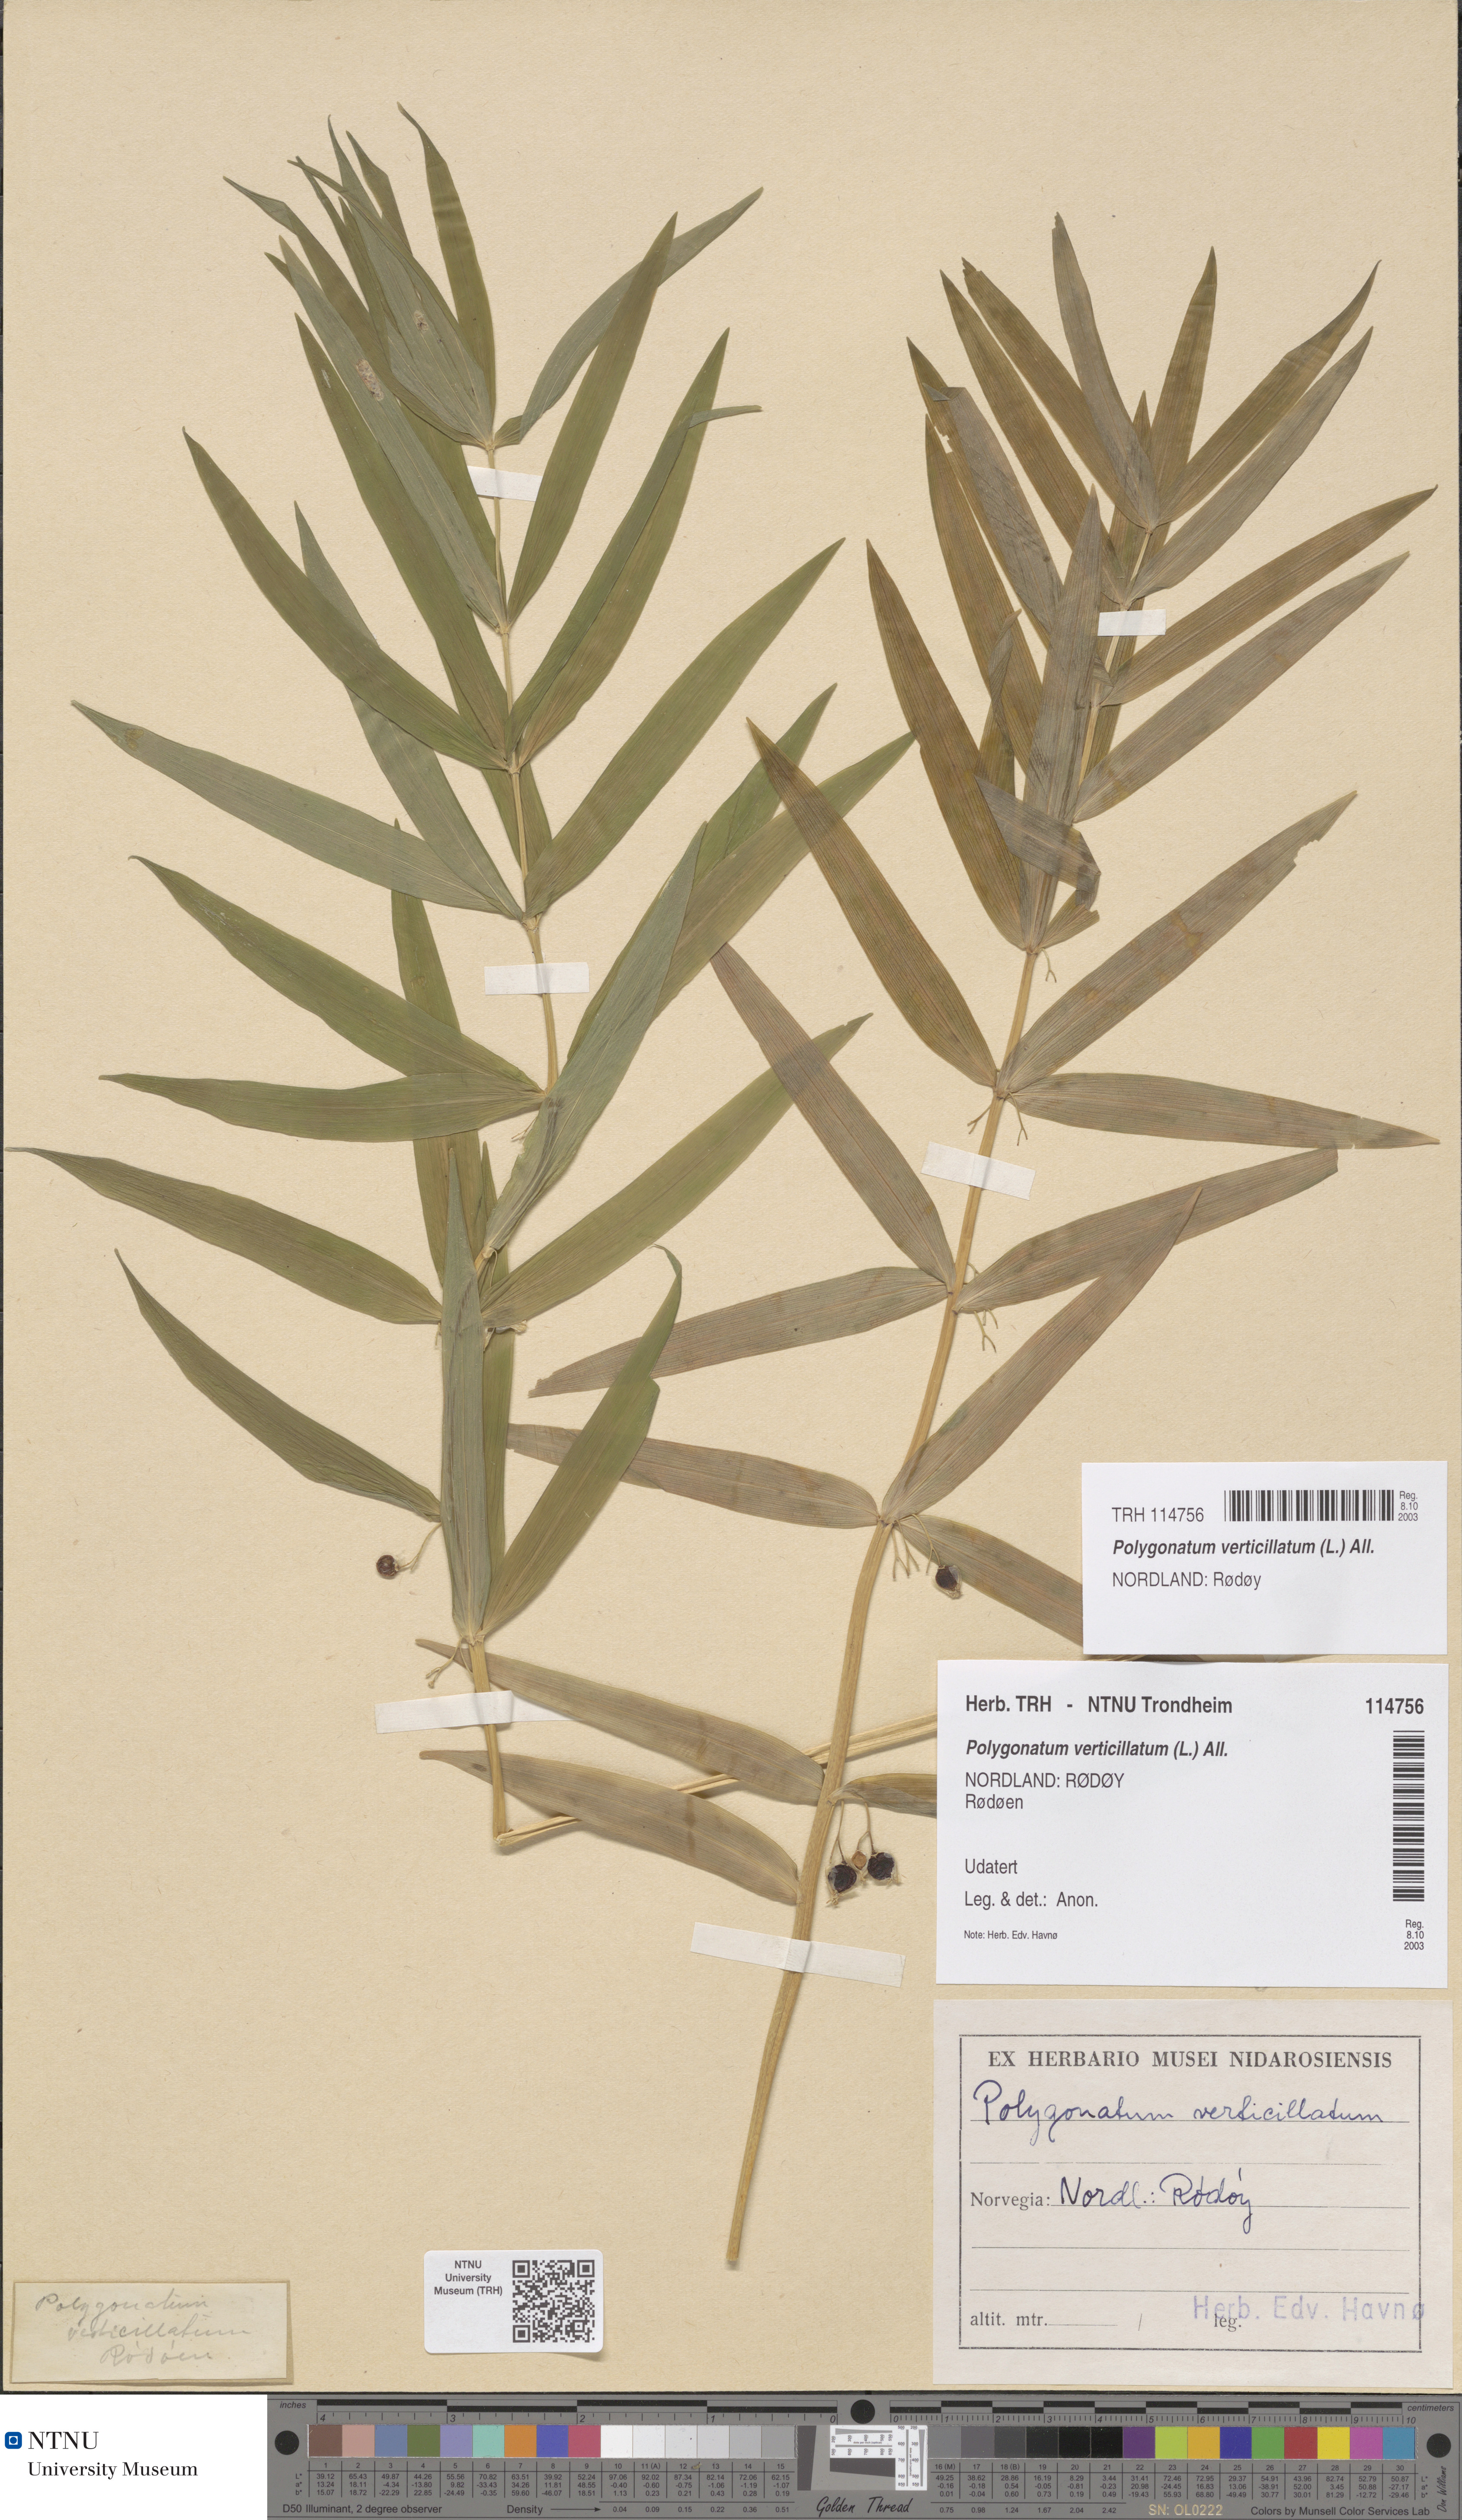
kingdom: Plantae
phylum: Tracheophyta
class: Liliopsida
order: Asparagales
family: Asparagaceae
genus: Polygonatum
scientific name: Polygonatum verticillatum
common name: Whorled solomon's-seal
